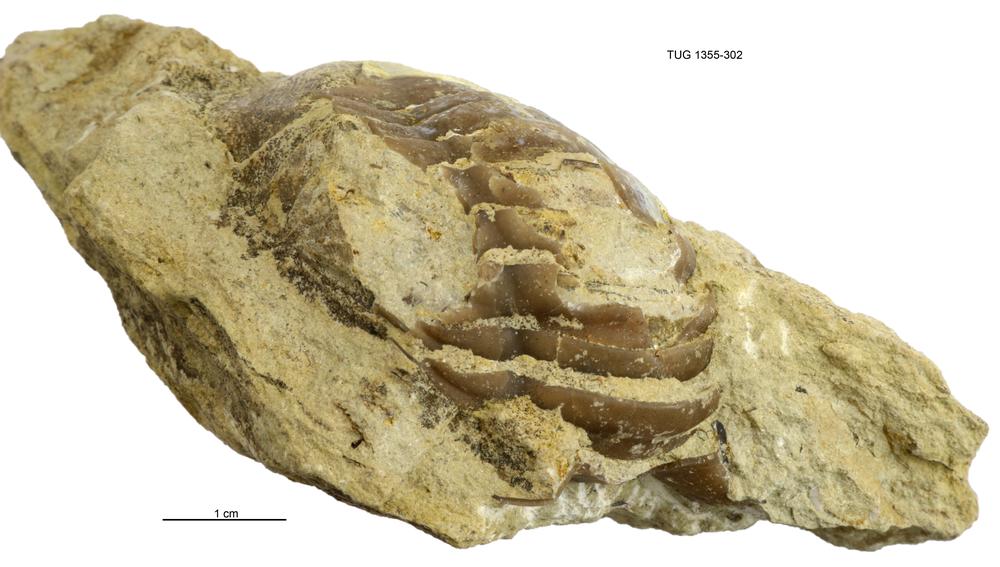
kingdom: Animalia
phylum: Arthropoda
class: Trilobita
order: Asaphida
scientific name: Asaphida
